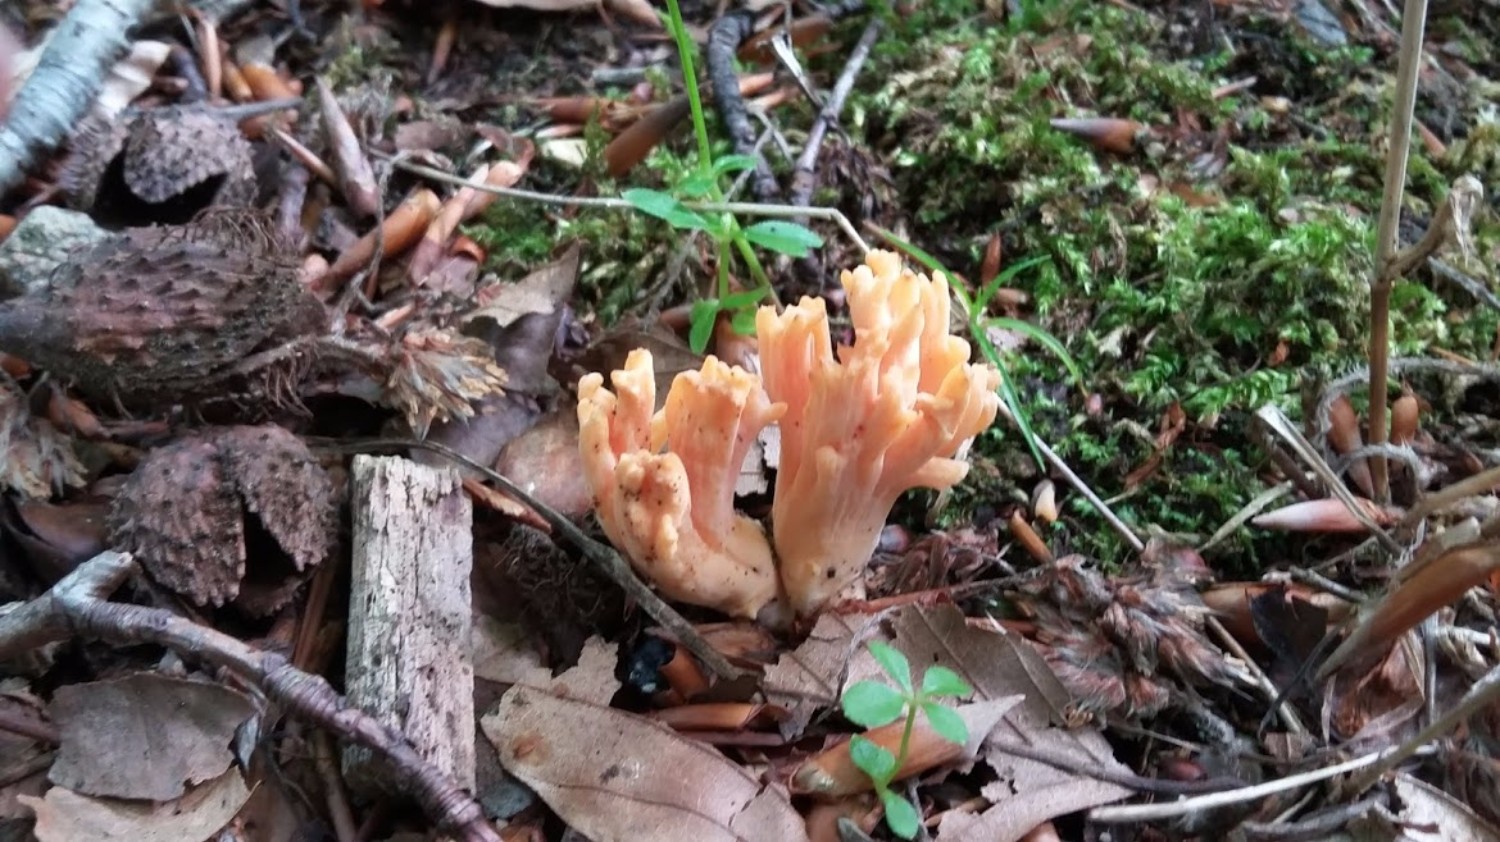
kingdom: Fungi
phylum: Basidiomycota
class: Agaricomycetes
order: Gomphales
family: Gomphaceae
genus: Ramaria
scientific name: Ramaria fagetorum
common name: abrikos-koralsvamp
